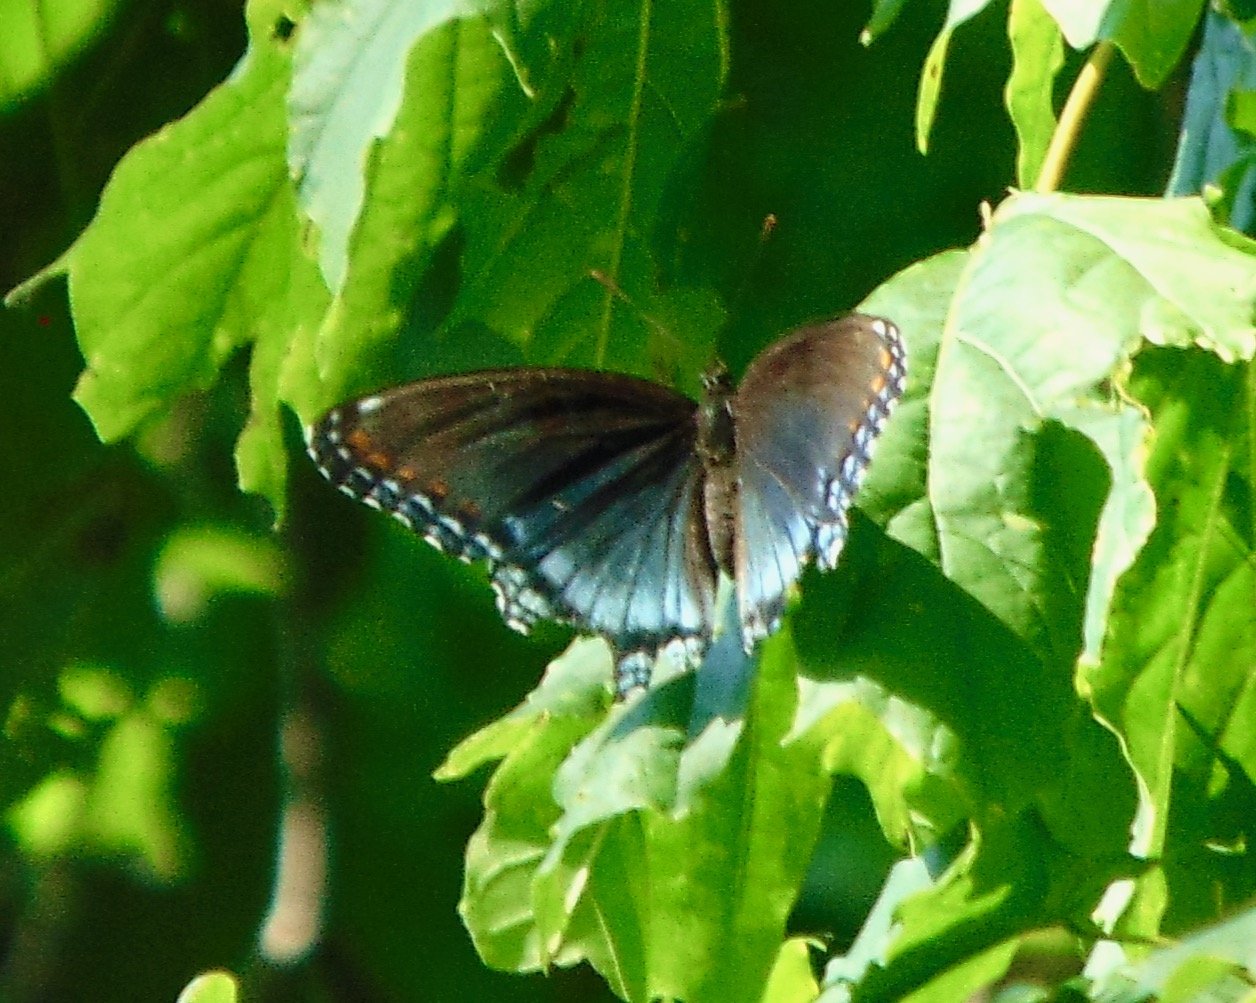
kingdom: Animalia
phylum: Arthropoda
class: Insecta
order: Lepidoptera
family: Nymphalidae
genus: Limenitis
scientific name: Limenitis astyanax
